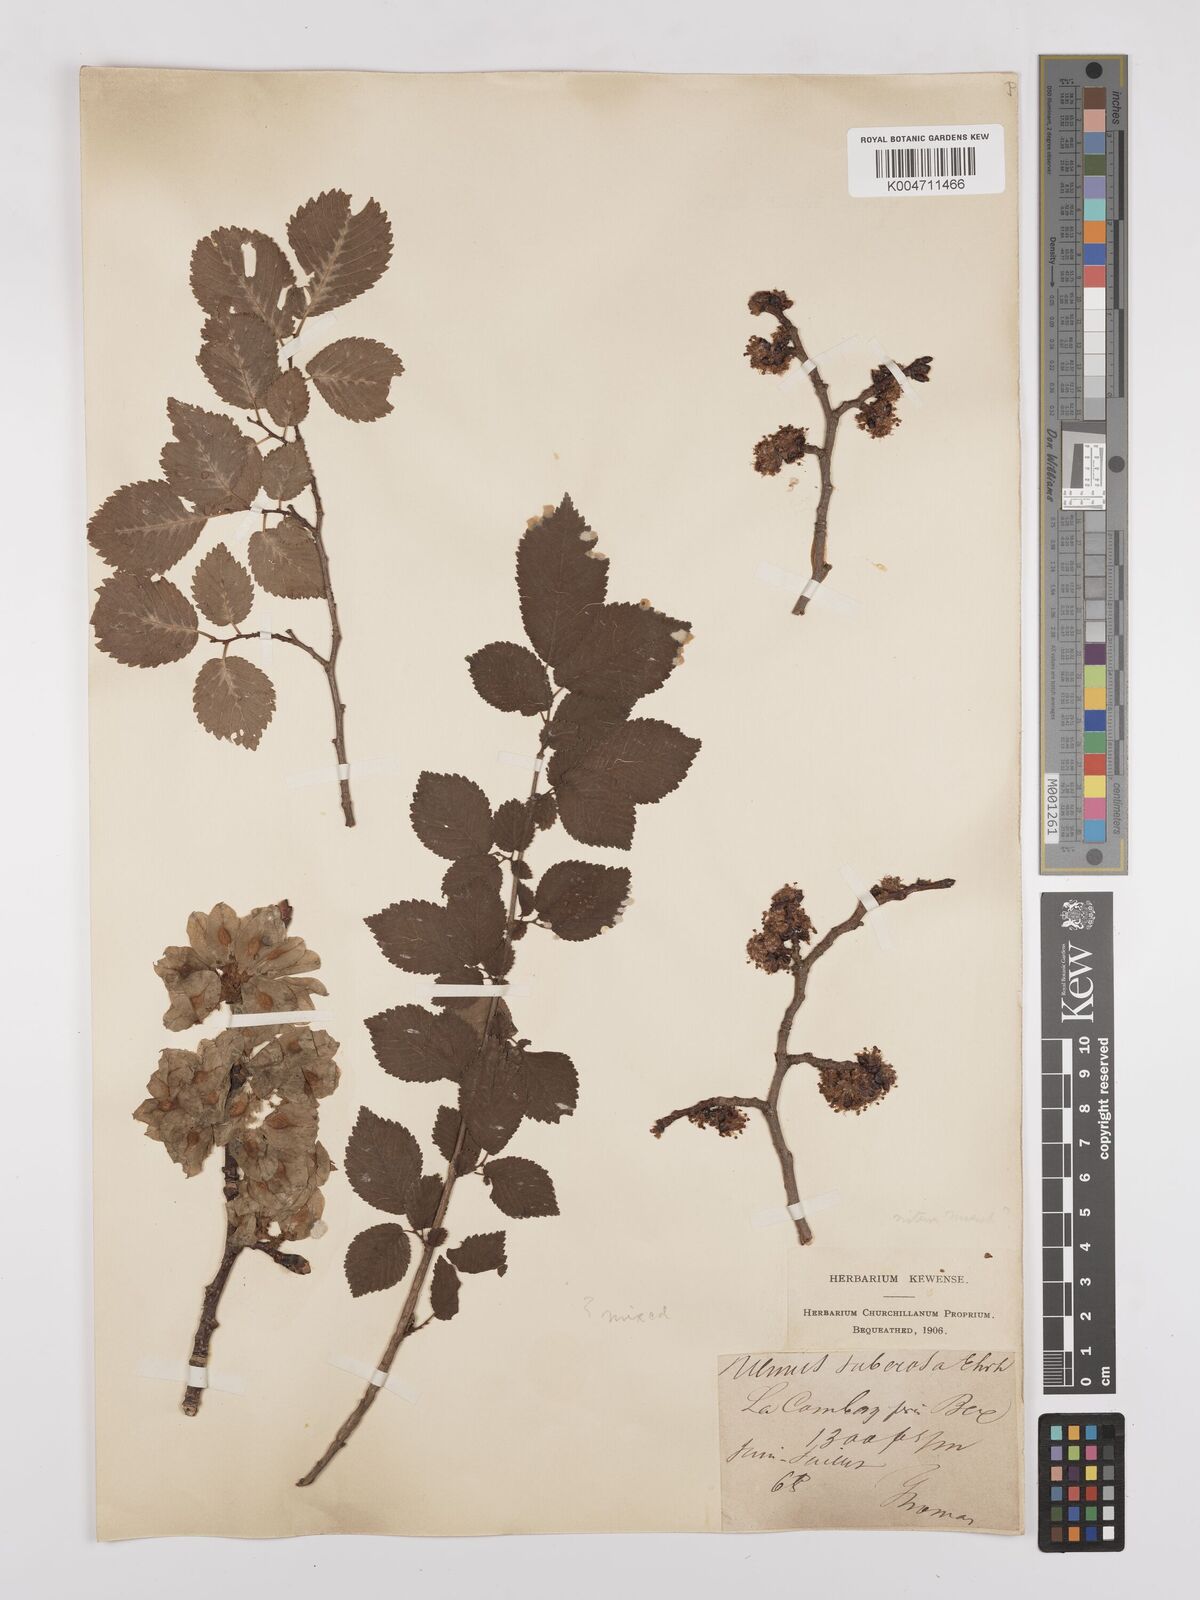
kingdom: Plantae
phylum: Tracheophyta
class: Magnoliopsida
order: Rosales
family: Ulmaceae
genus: Ulmus
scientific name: Ulmus minor
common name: Small-leaved elm
